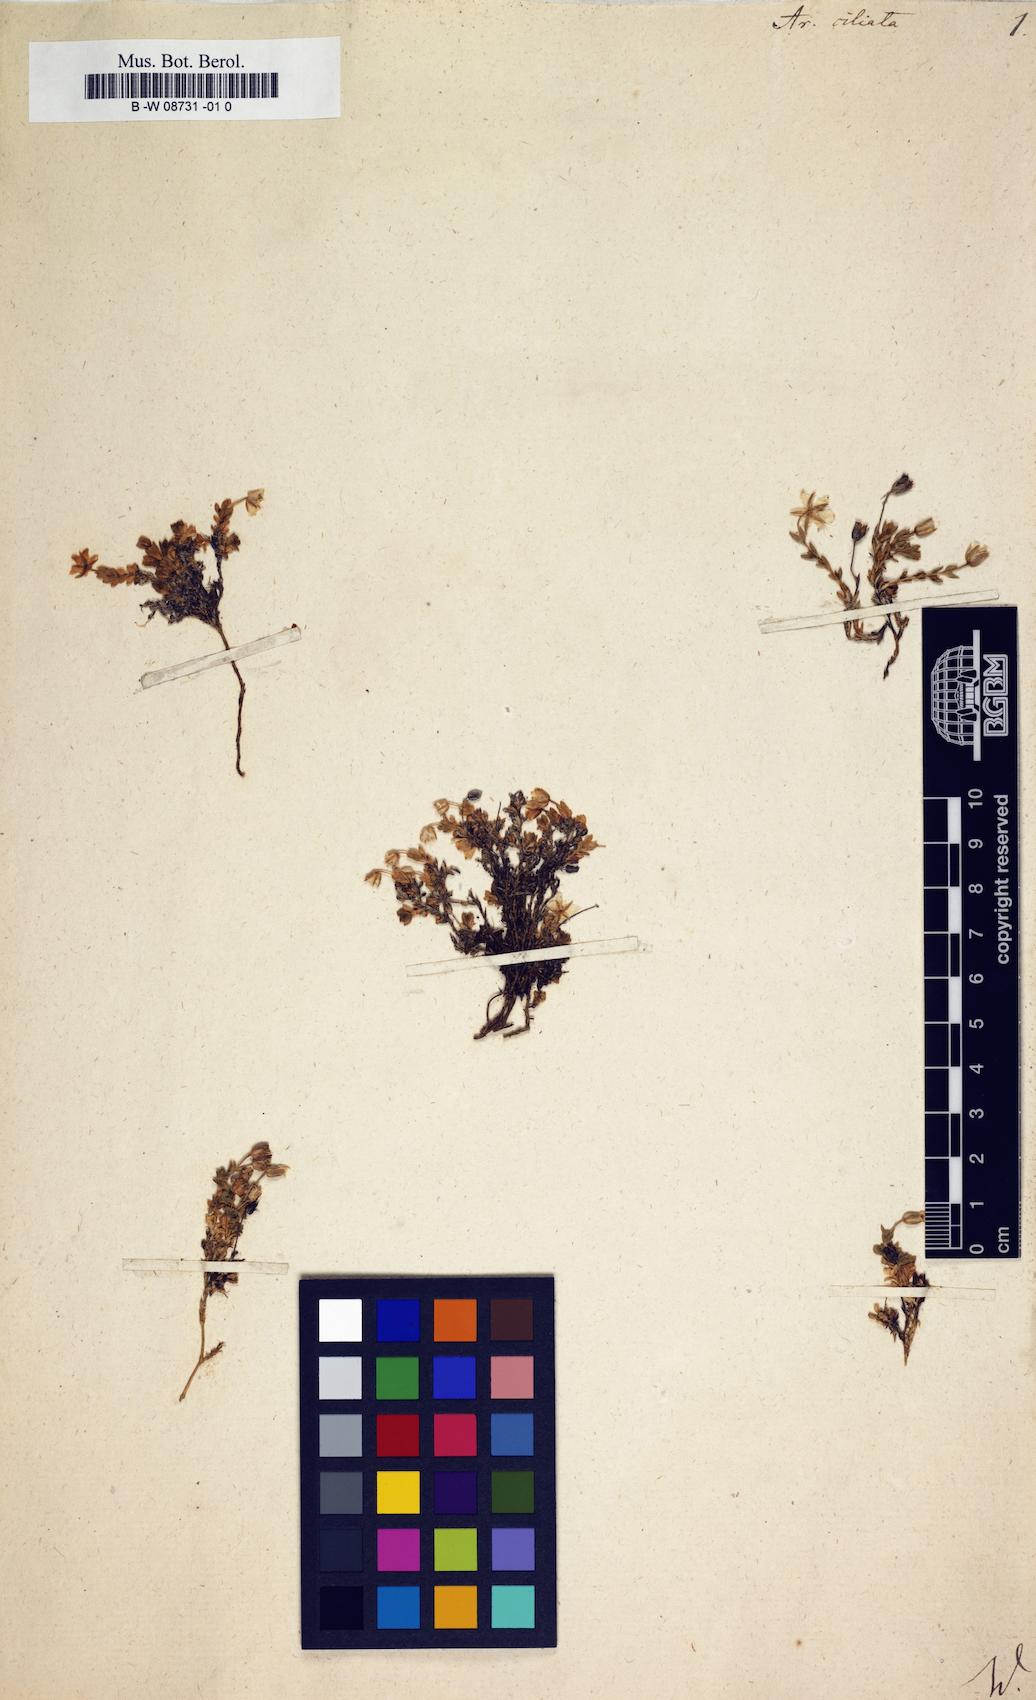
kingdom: Plantae
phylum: Tracheophyta
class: Magnoliopsida
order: Caryophyllales
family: Caryophyllaceae
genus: Arenaria
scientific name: Arenaria ciliata
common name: Fringed sandwort
